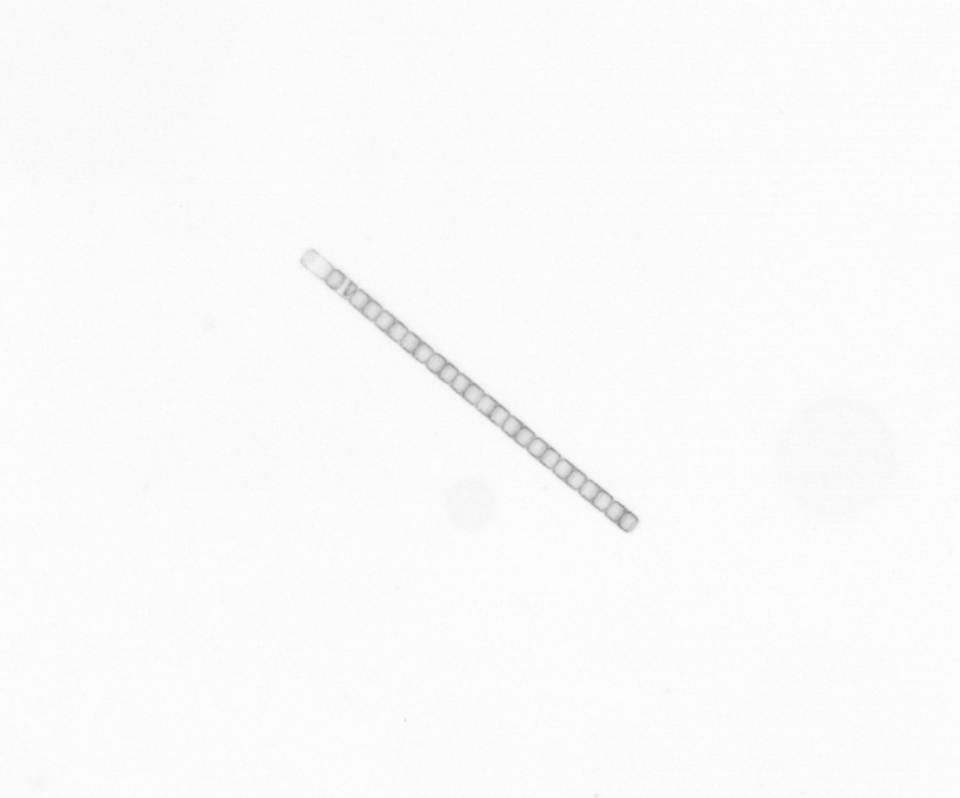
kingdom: Chromista
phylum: Ochrophyta
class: Bacillariophyceae
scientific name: Bacillariophyceae
